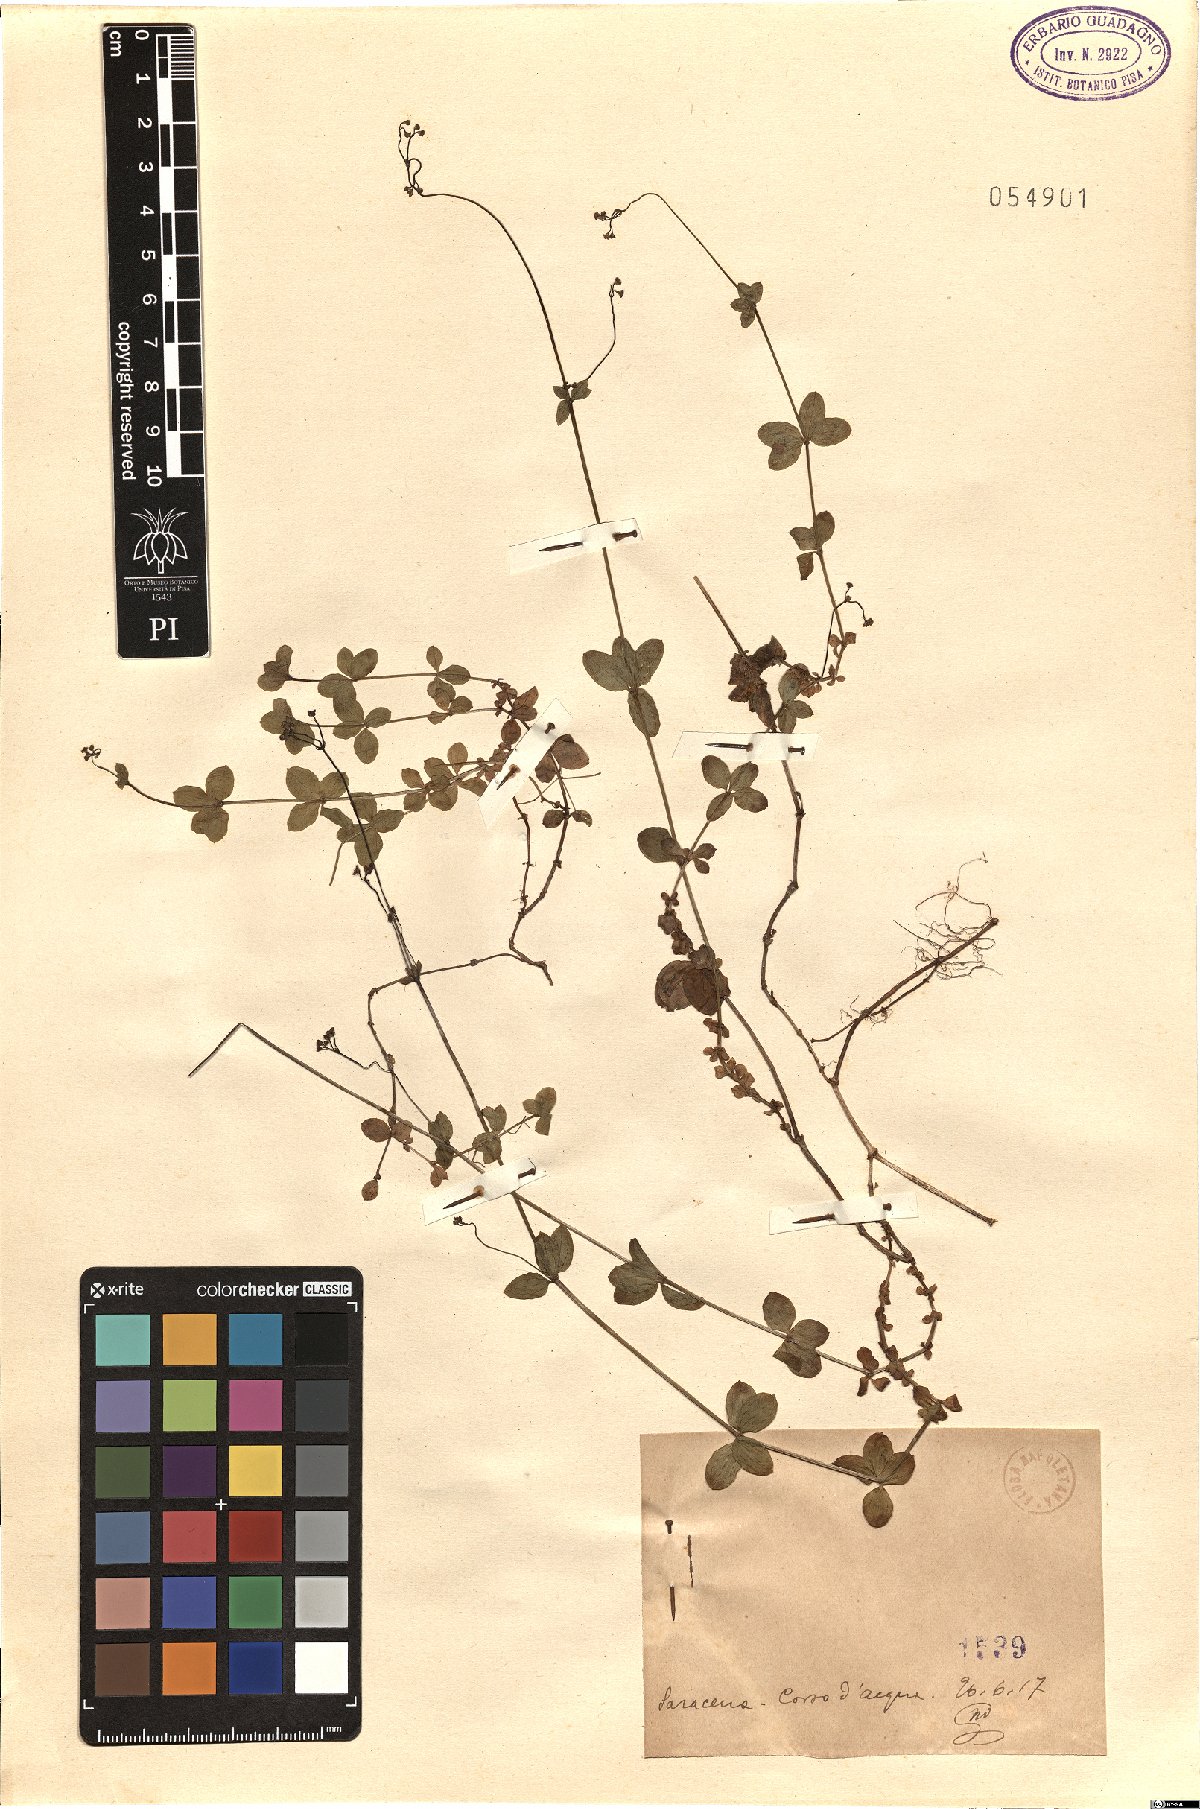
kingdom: Plantae
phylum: Tracheophyta
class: Magnoliopsida
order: Gentianales
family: Rubiaceae
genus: Asperula
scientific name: Asperula
